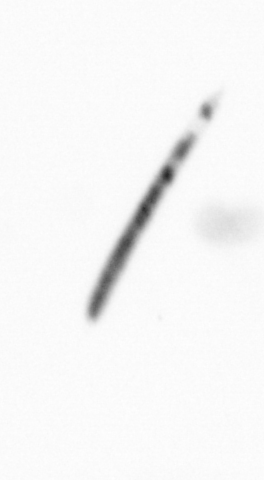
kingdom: Chromista
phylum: Ochrophyta
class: Bacillariophyceae
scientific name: Bacillariophyceae
